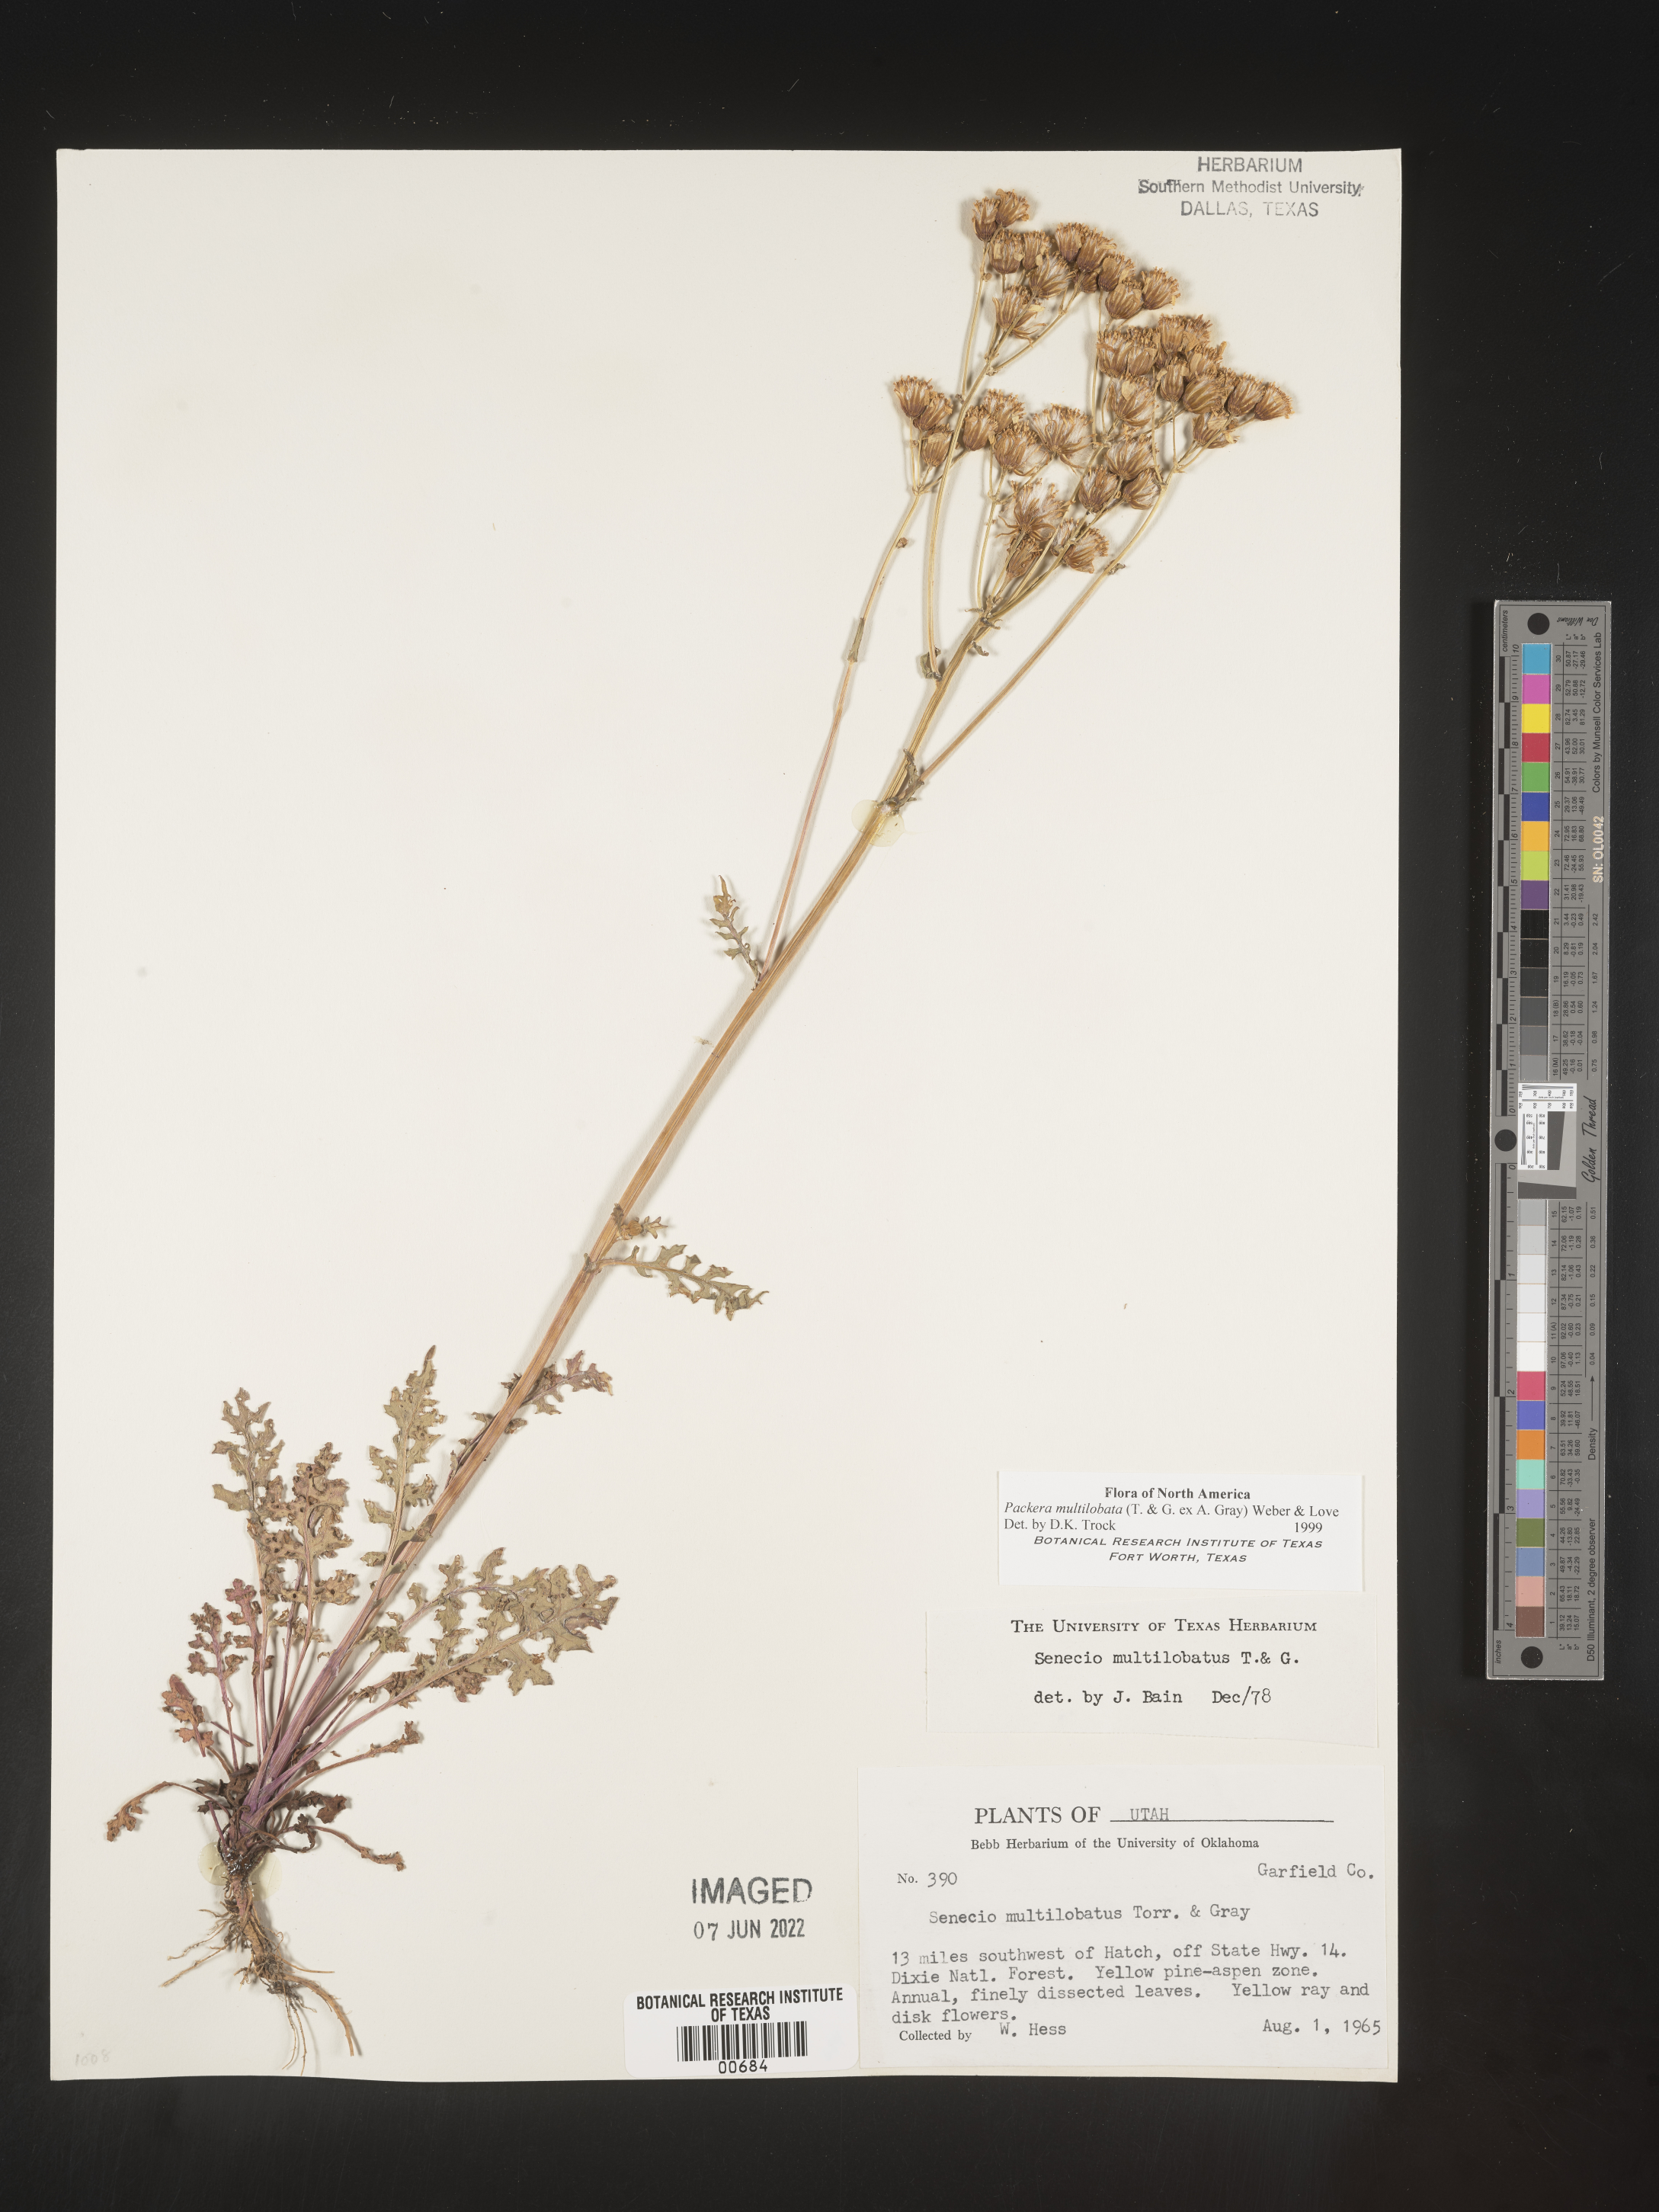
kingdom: Plantae
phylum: Tracheophyta
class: Magnoliopsida
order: Asterales
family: Asteraceae
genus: Packera
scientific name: Packera multilobata
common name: Lobe-leaf groundsel
